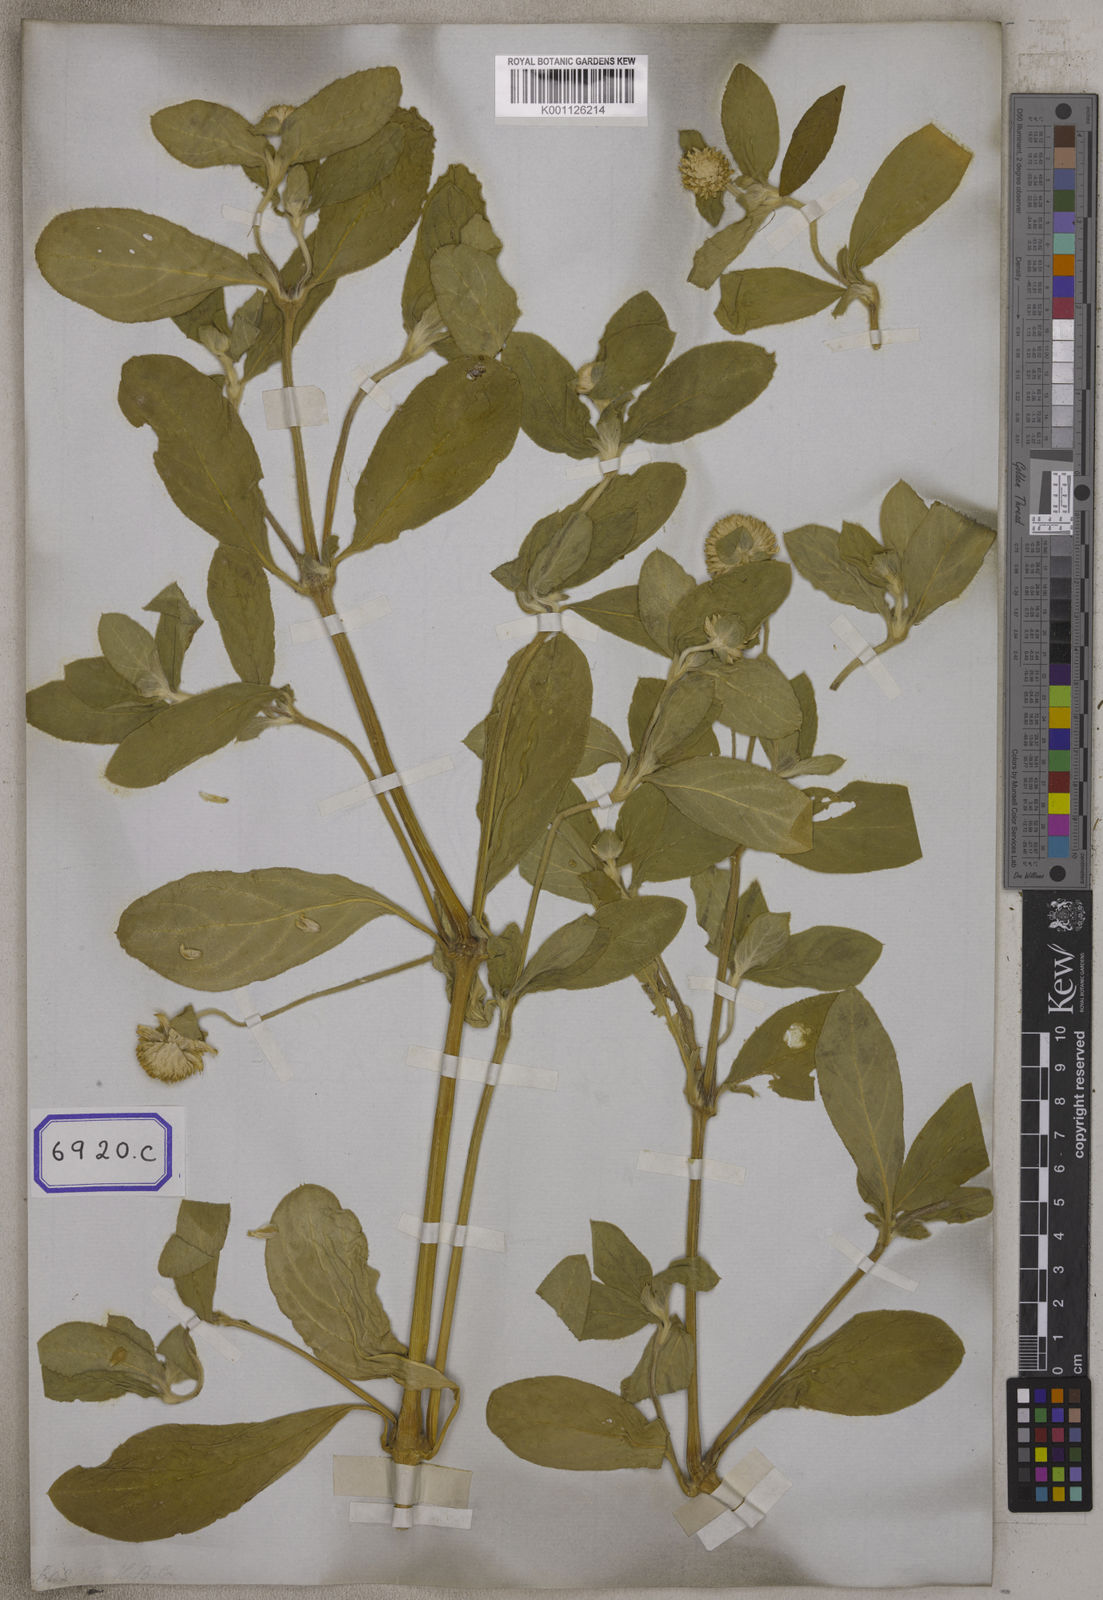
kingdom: Plantae
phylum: Tracheophyta
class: Magnoliopsida
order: Caryophyllales
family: Amaranthaceae
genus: Gomphrena
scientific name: Gomphrena globosa
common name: Common globe amaranth
